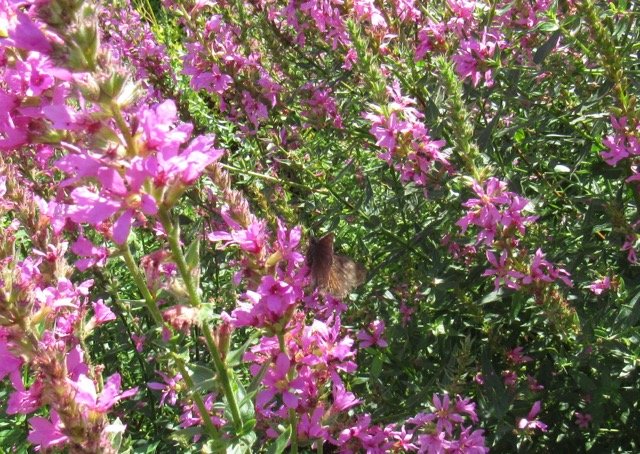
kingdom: Animalia
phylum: Arthropoda
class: Insecta
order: Lepidoptera
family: Hesperiidae
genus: Gesta
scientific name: Gesta
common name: Wild Indigo Duskywing
